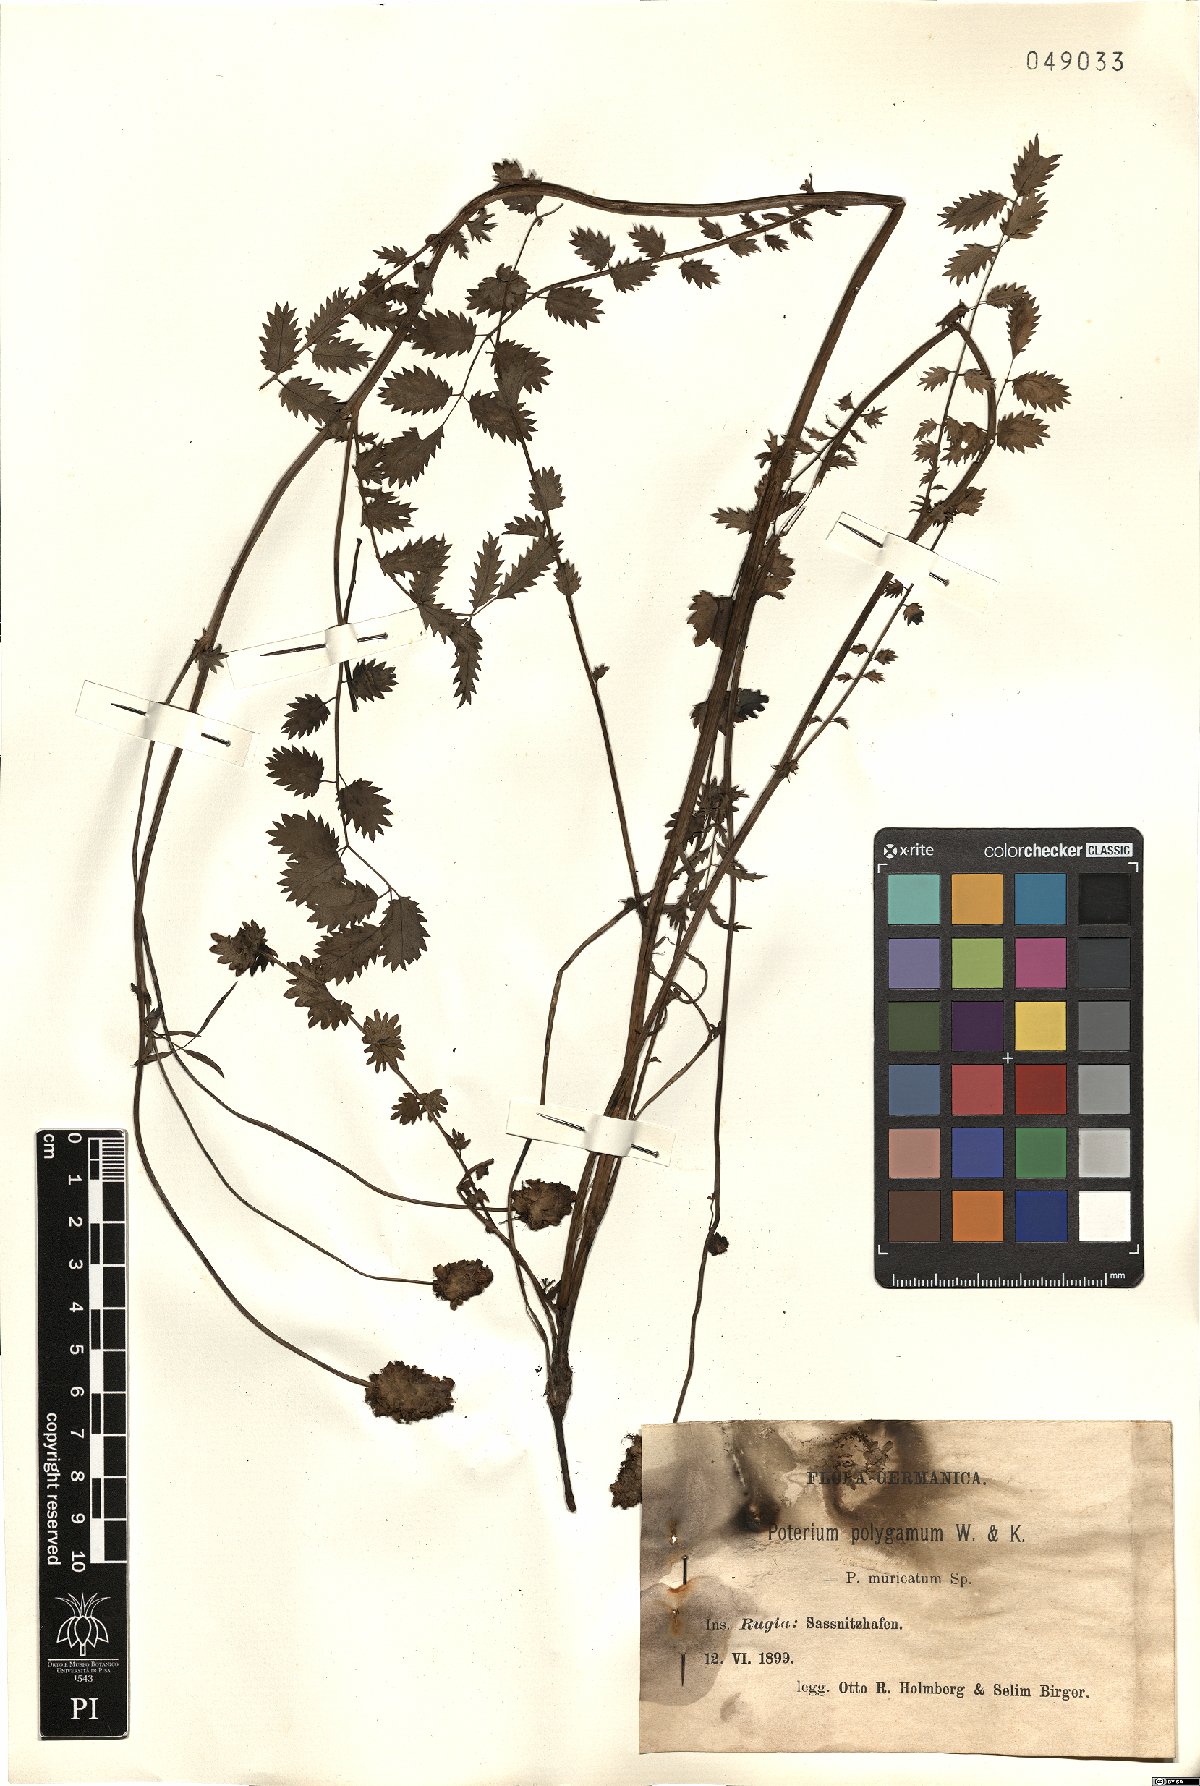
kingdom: Plantae
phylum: Tracheophyta
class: Magnoliopsida
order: Rosales
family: Rosaceae
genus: Poterium
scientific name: Poterium sanguisorba
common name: Salad burnet
